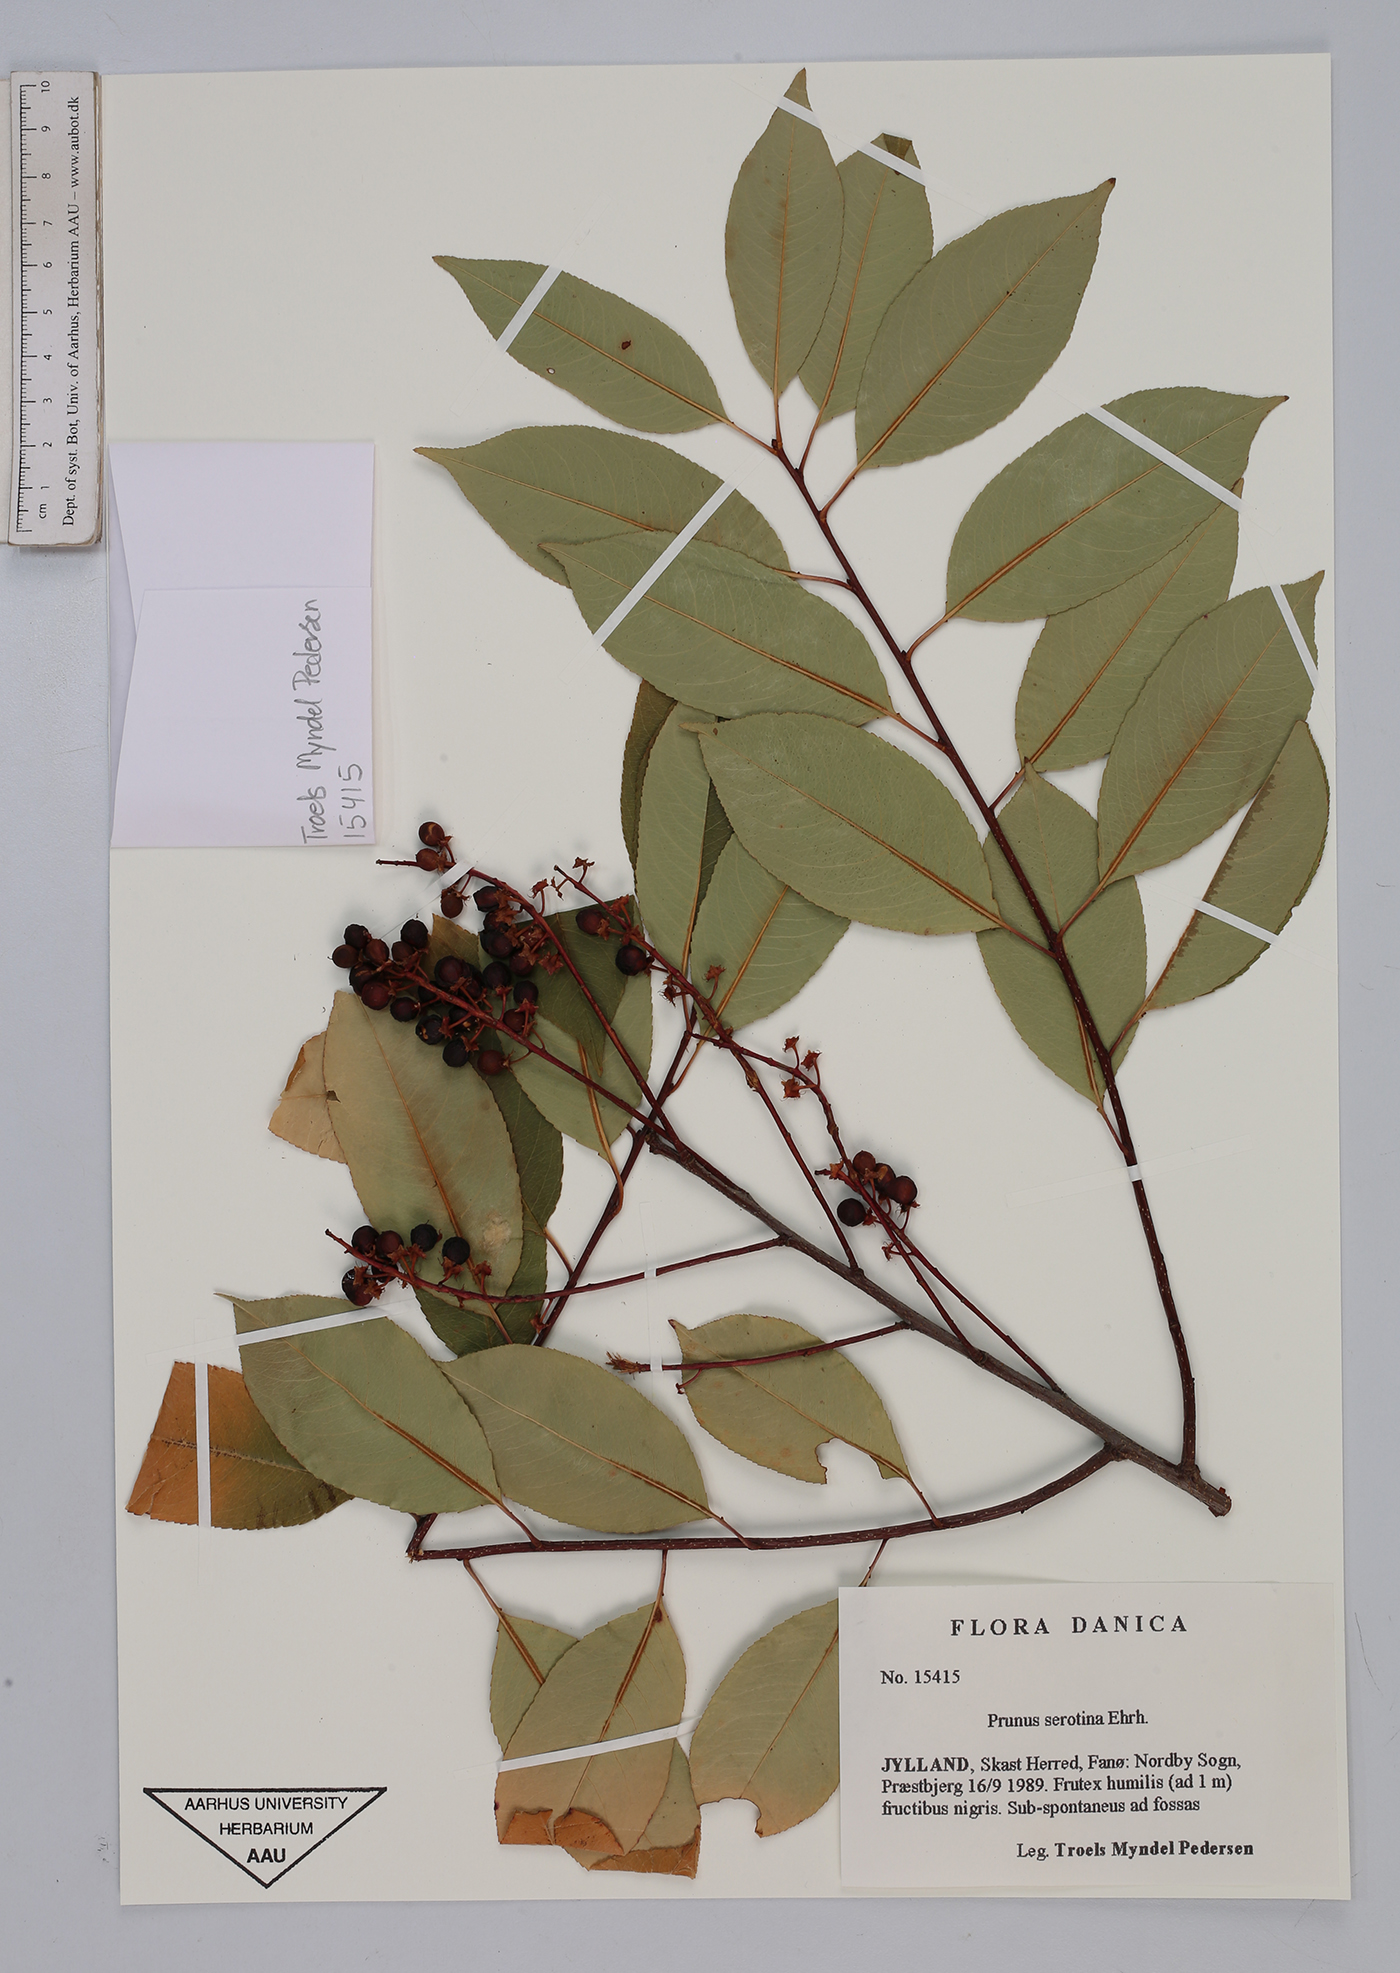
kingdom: Plantae
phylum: Tracheophyta
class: Magnoliopsida
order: Rosales
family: Rosaceae
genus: Prunus
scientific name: Prunus serotina
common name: Black cherry
